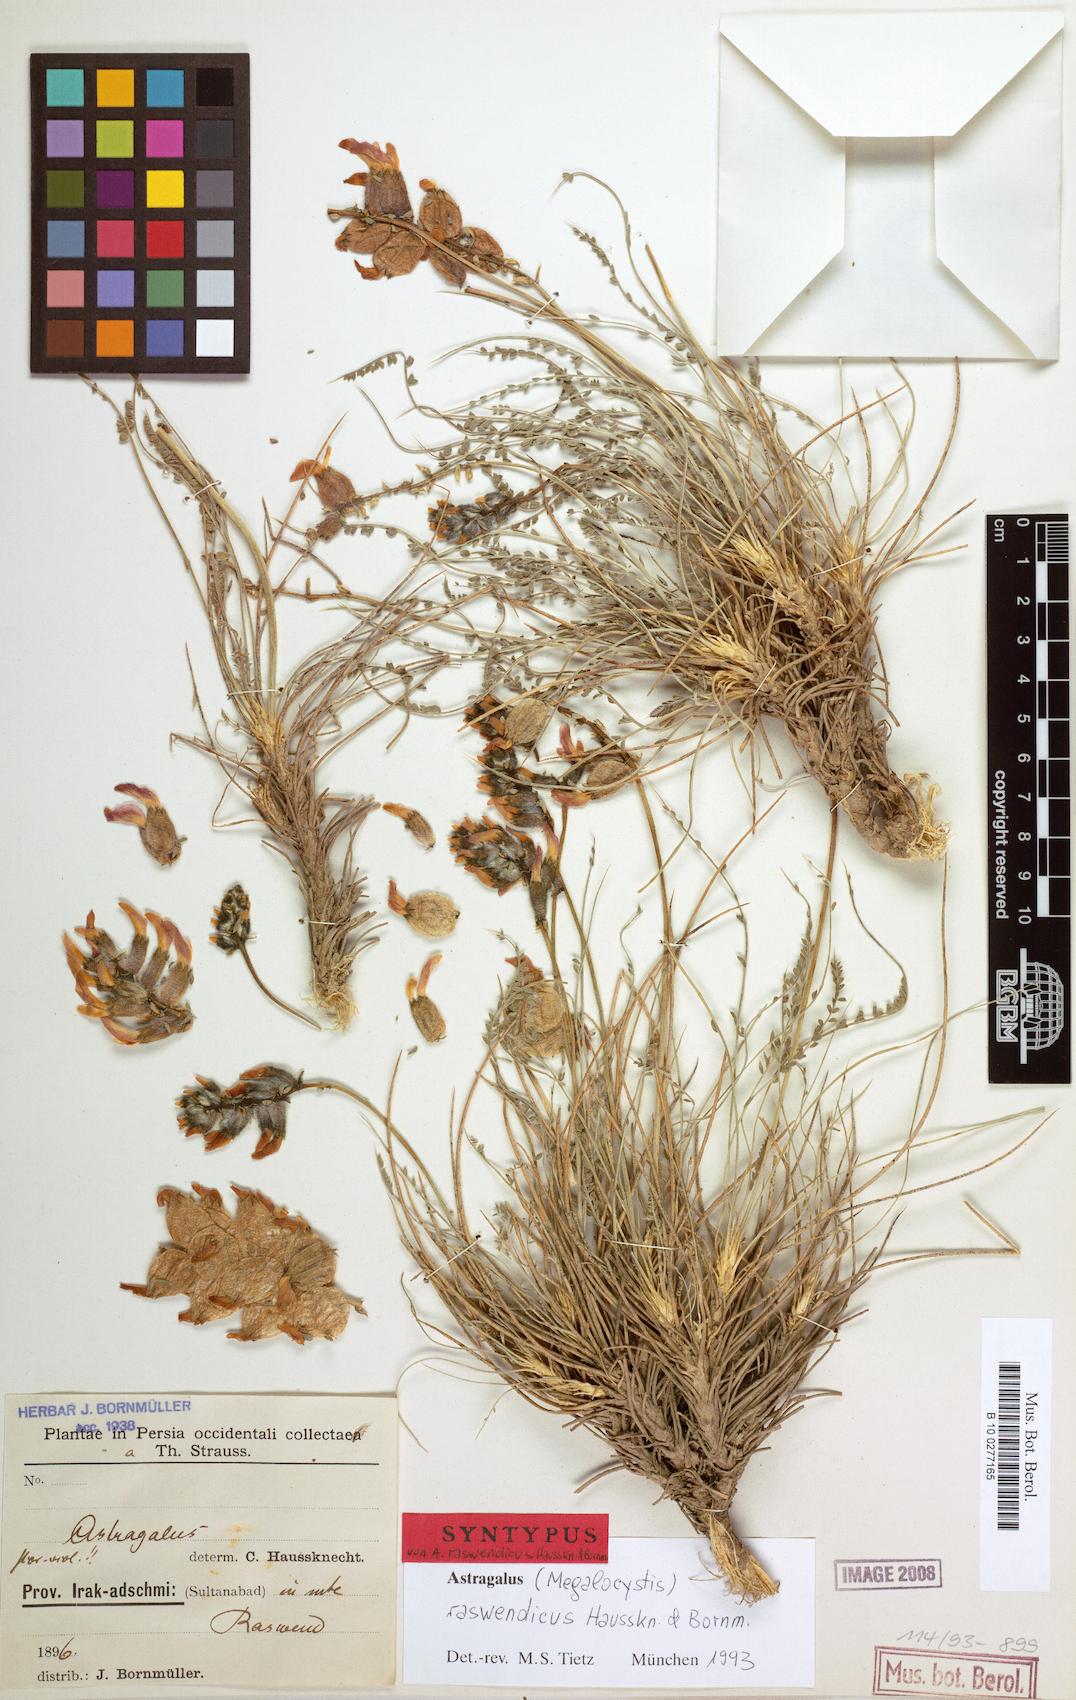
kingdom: Plantae
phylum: Tracheophyta
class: Magnoliopsida
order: Fabales
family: Fabaceae
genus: Astragalus
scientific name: Astragalus raswendicus
